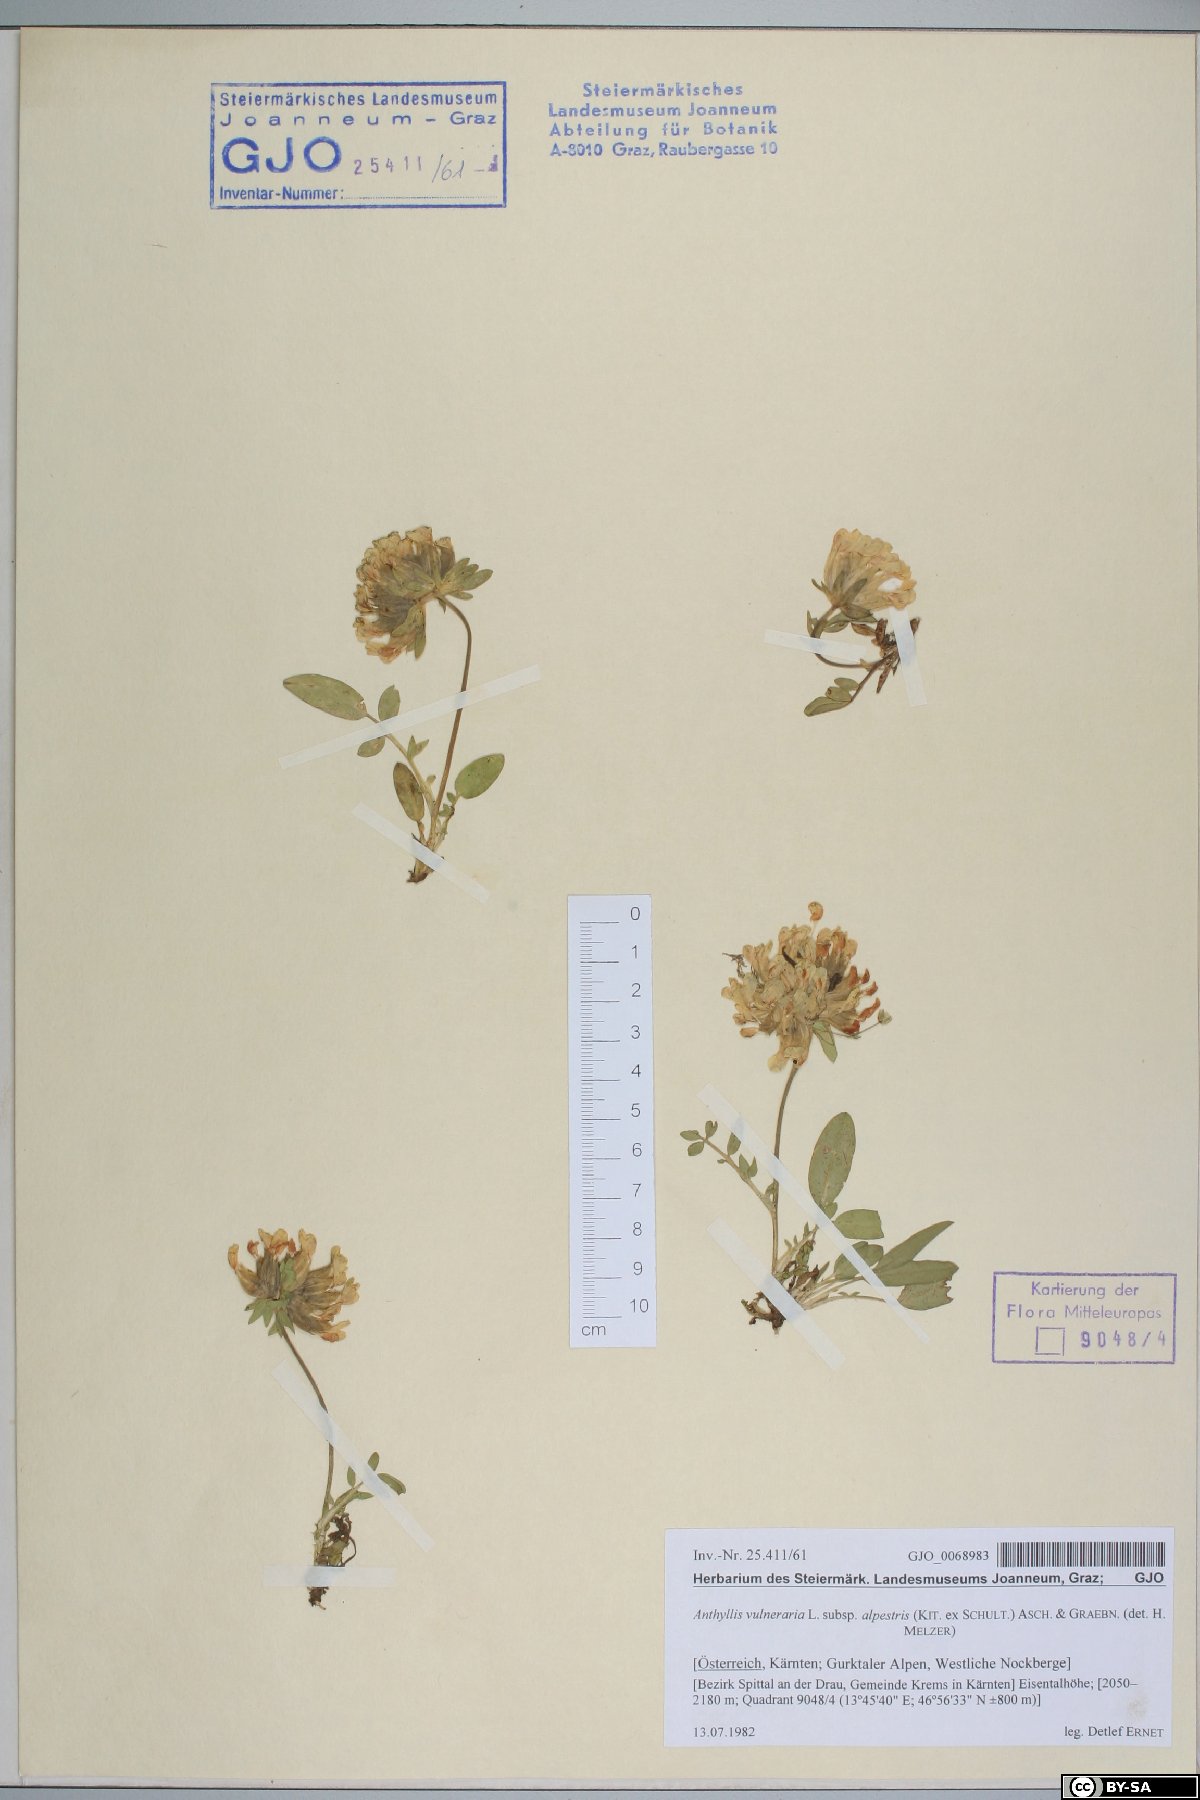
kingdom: Plantae
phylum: Tracheophyta
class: Magnoliopsida
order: Fabales
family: Fabaceae
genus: Anthyllis
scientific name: Anthyllis vulneraria
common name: Kidney vetch
